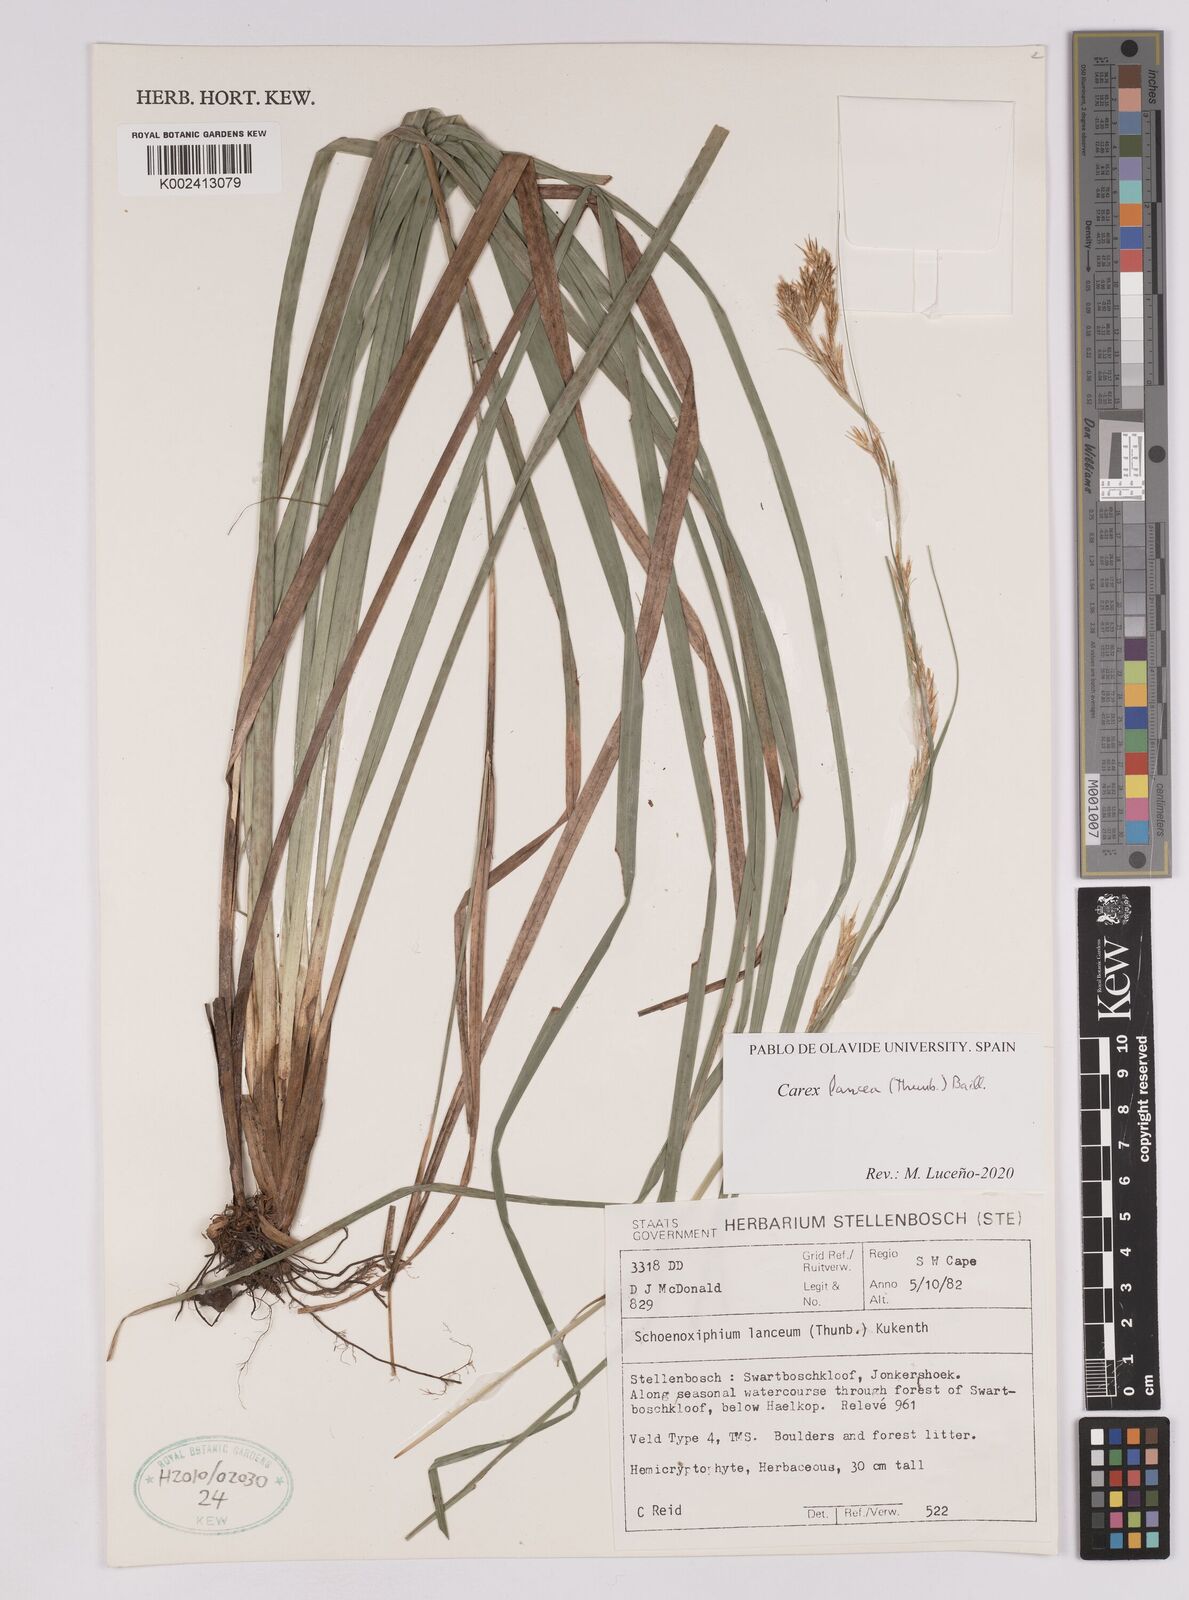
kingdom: Plantae
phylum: Tracheophyta
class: Liliopsida
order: Poales
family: Cyperaceae
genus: Carex
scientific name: Carex lancea
